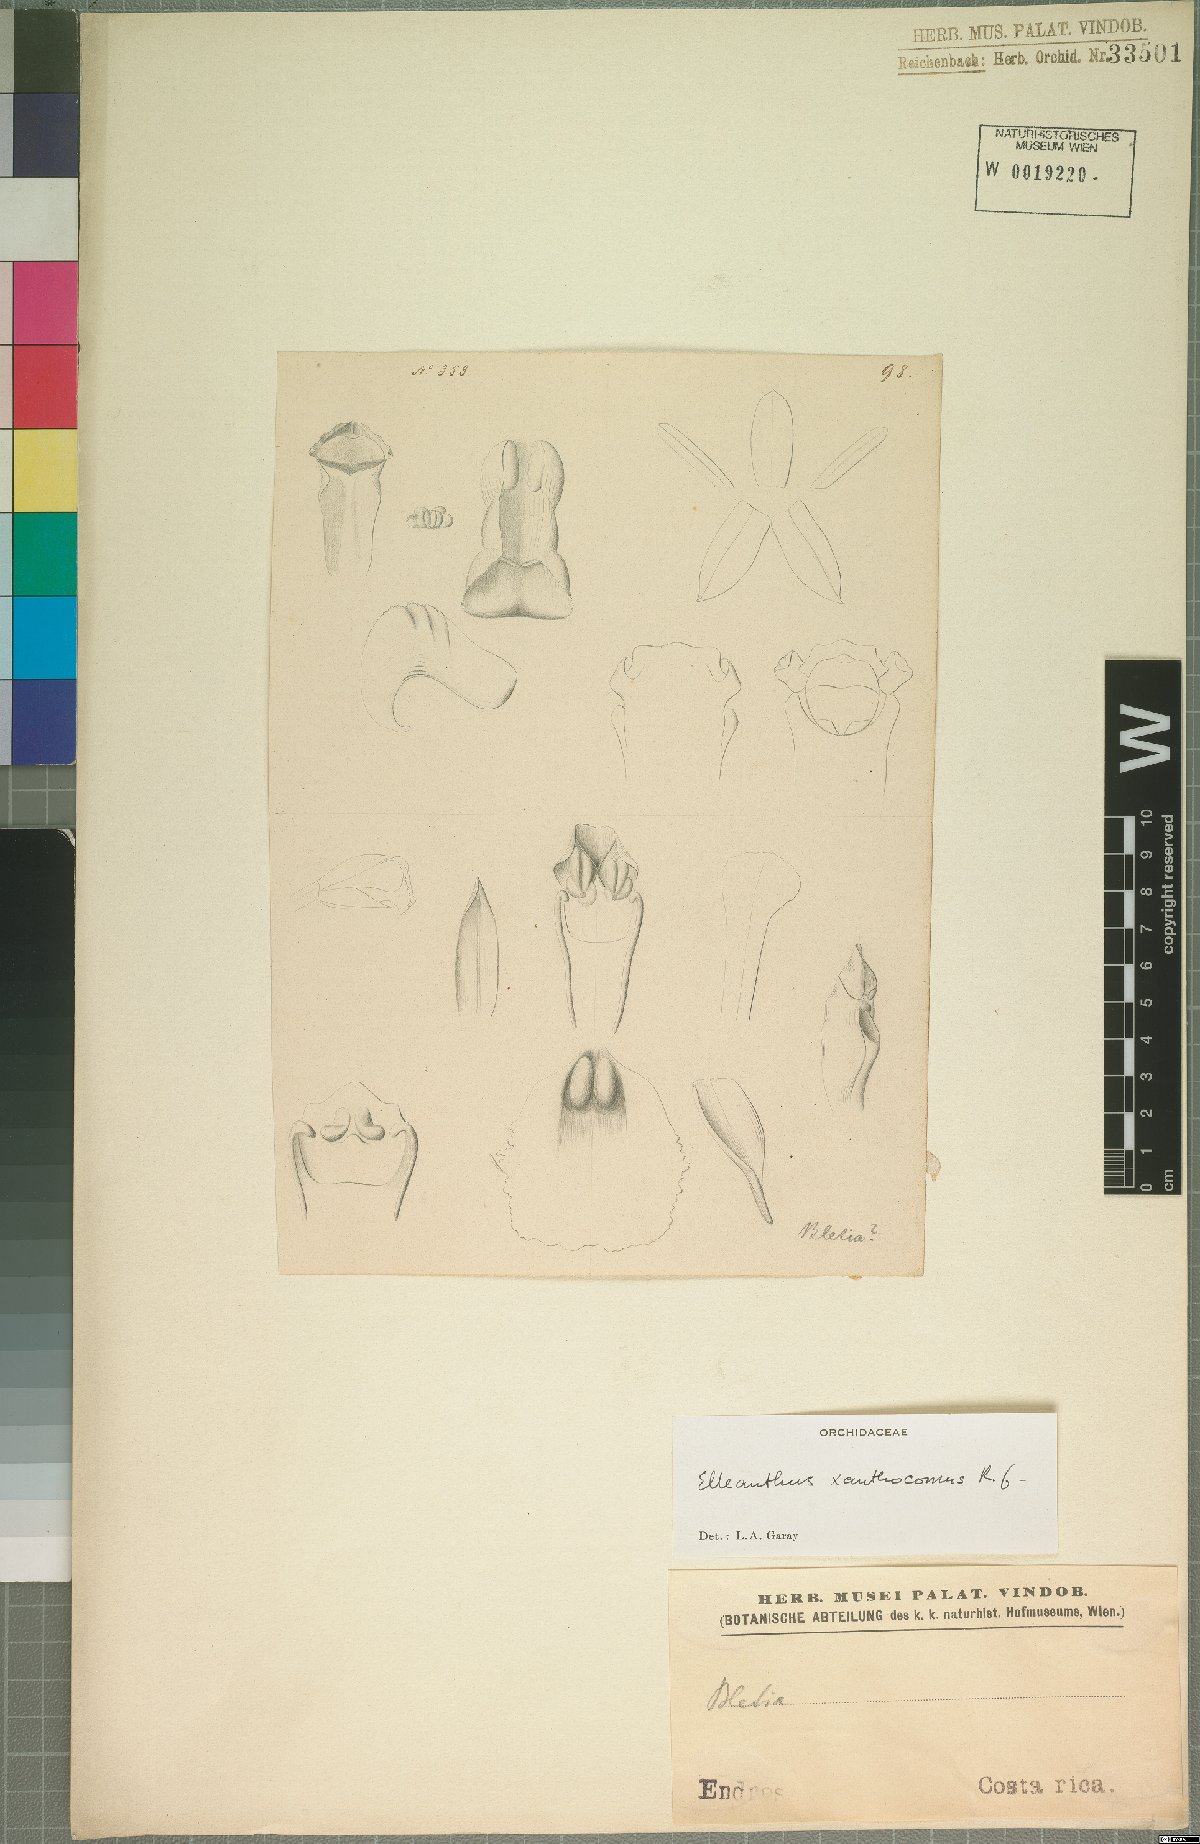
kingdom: Plantae
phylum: Tracheophyta
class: Liliopsida
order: Asparagales
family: Orchidaceae
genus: Elleanthus
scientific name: Elleanthus longibracteatus
